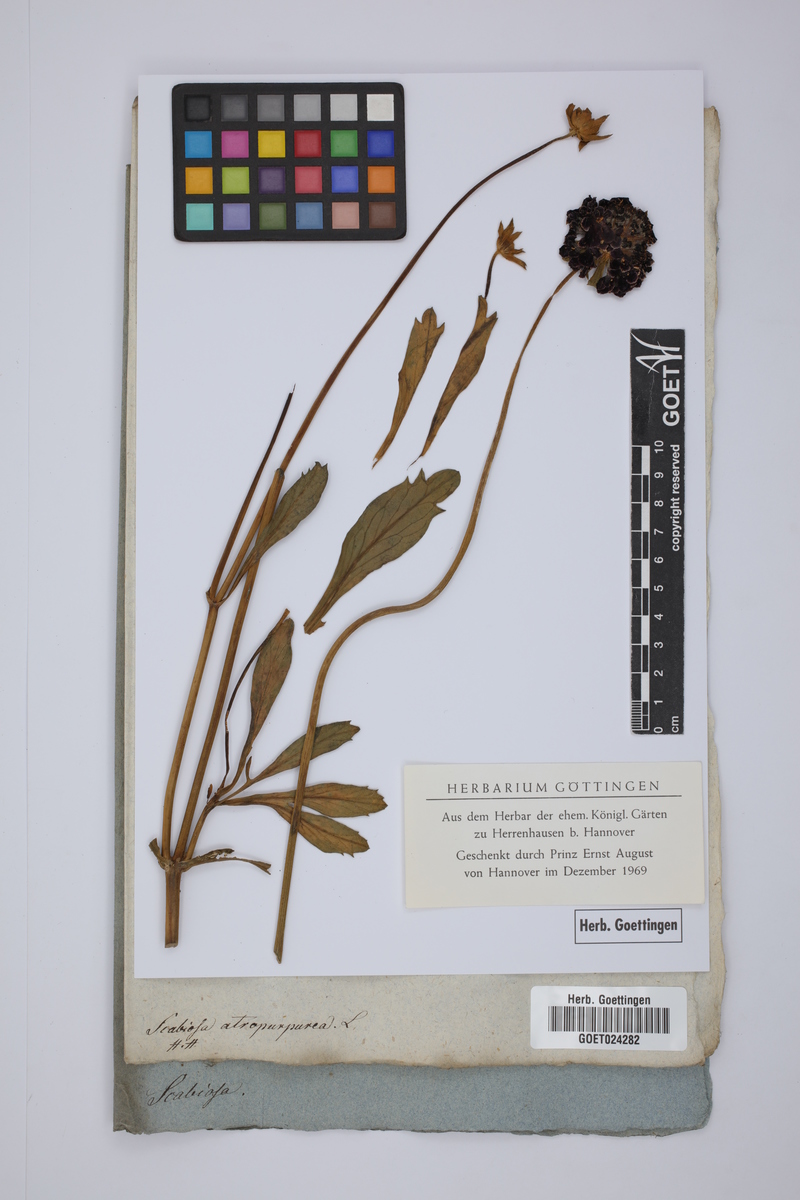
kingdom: Plantae
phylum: Tracheophyta
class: Magnoliopsida
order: Dipsacales
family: Caprifoliaceae
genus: Sixalix
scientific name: Sixalix atropurpurea
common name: Sweet scabious
